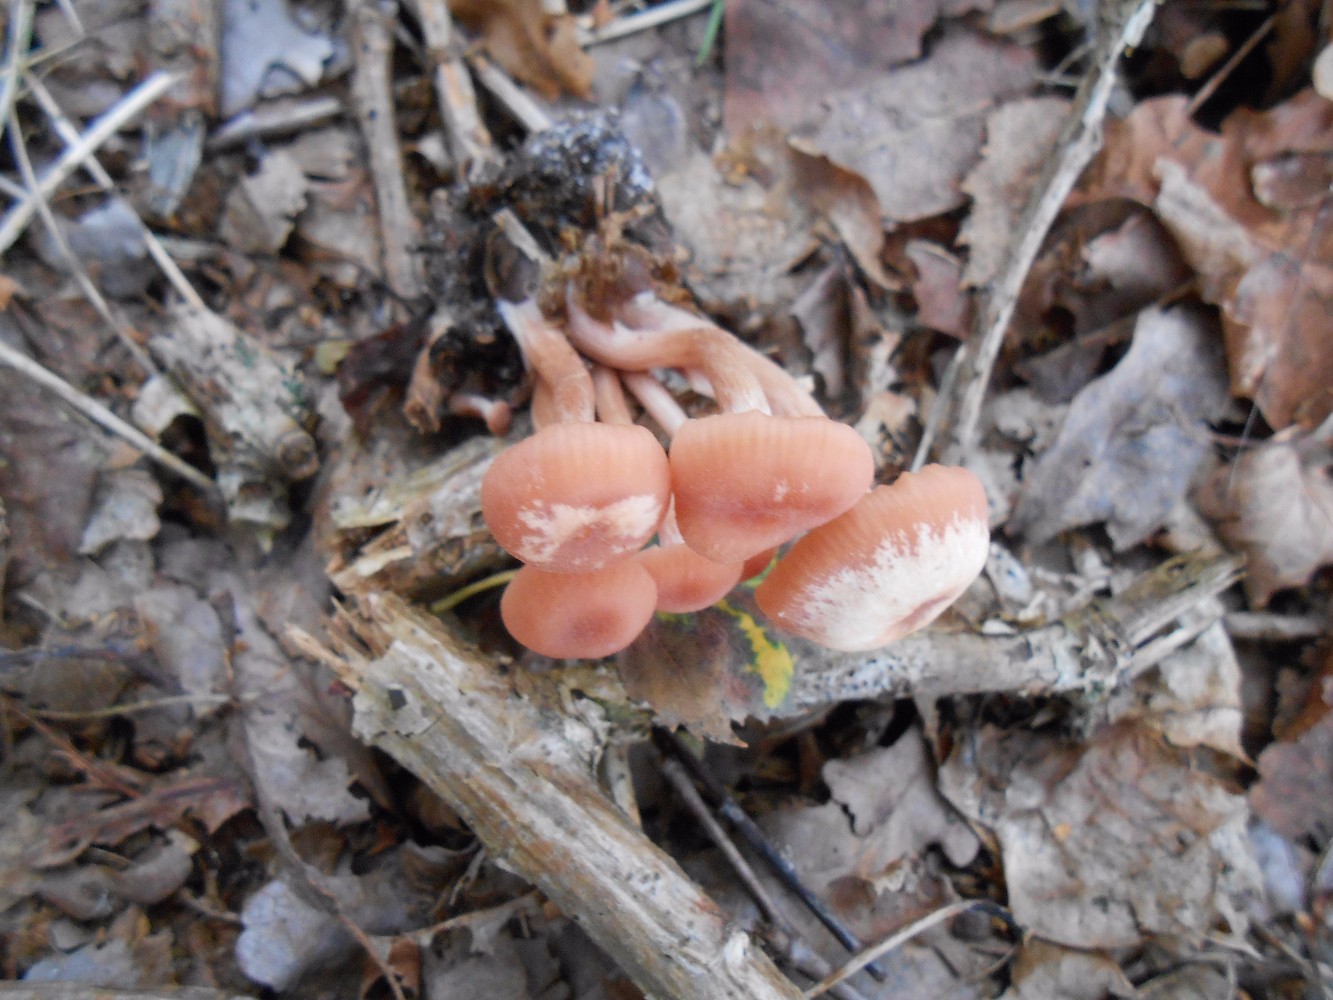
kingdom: Fungi
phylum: Basidiomycota
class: Agaricomycetes
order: Agaricales
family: Hydnangiaceae
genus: Laccaria
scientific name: Laccaria laccata
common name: rød ametysthat
